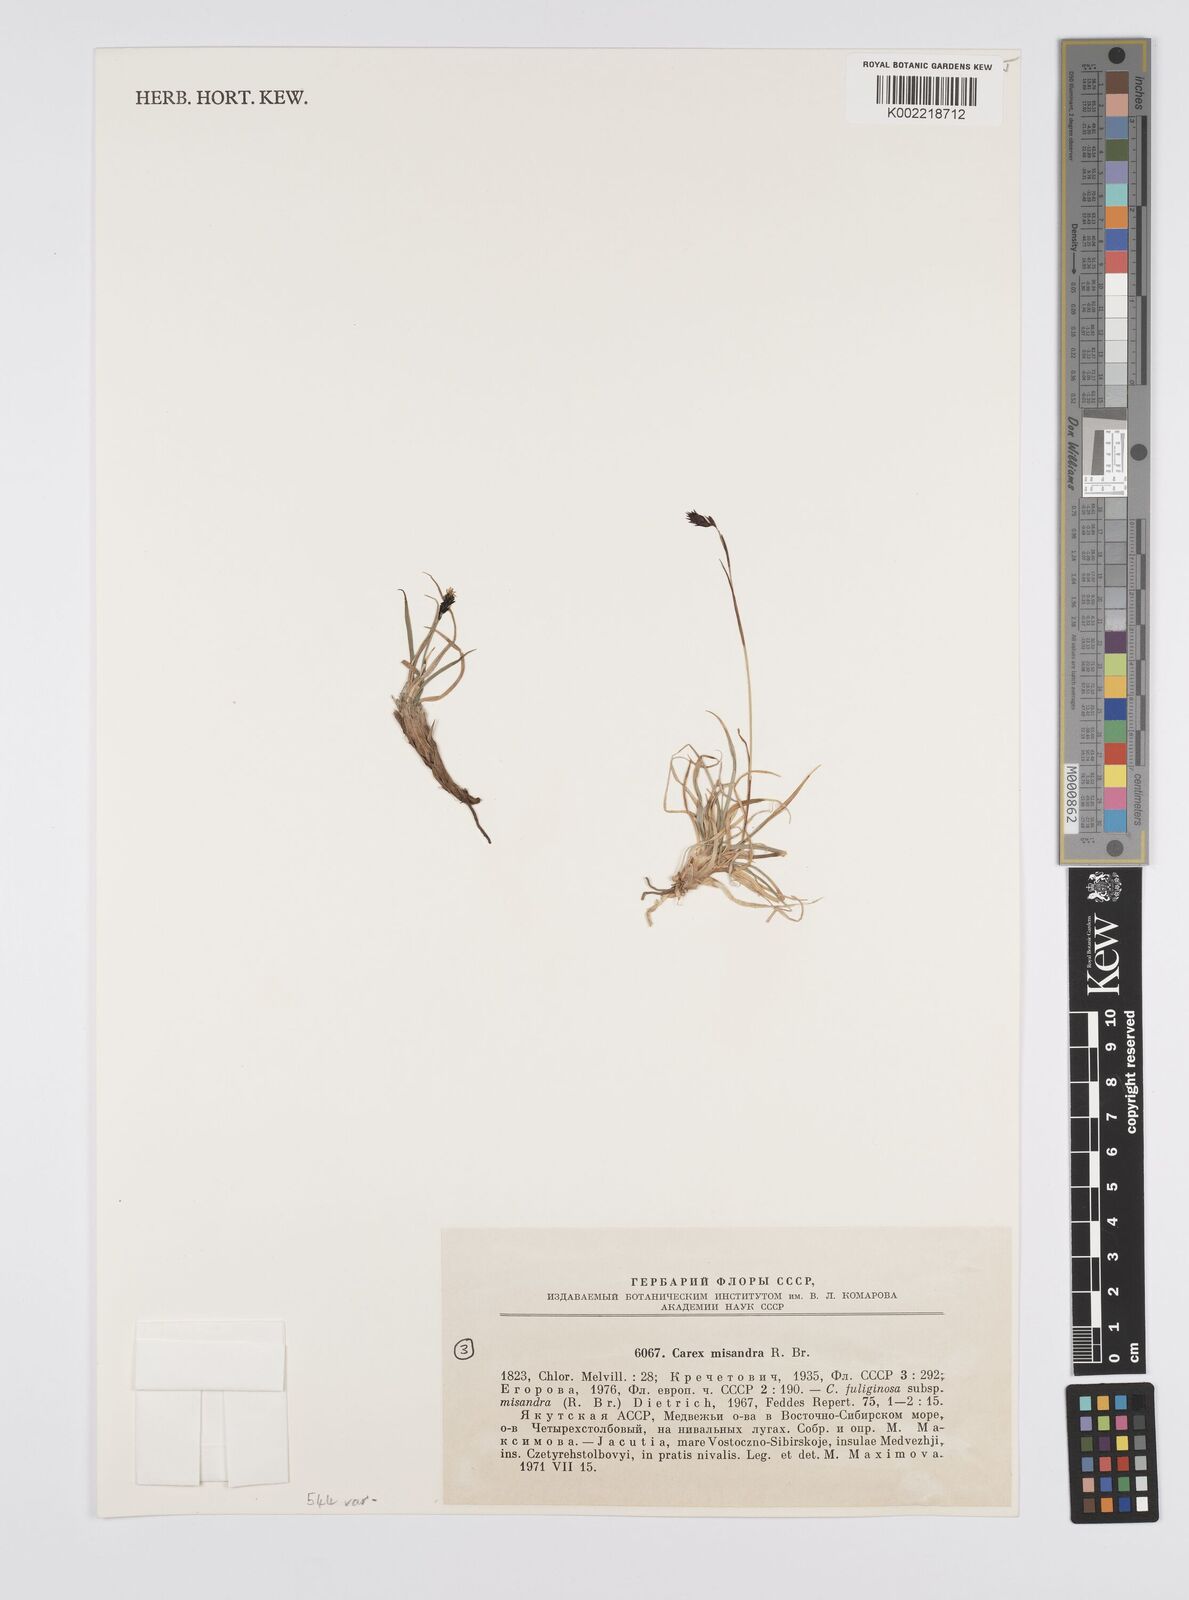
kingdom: Plantae
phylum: Tracheophyta
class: Liliopsida
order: Poales
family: Cyperaceae
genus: Carex
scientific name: Carex fuliginosa
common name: Few-flowered sedge
